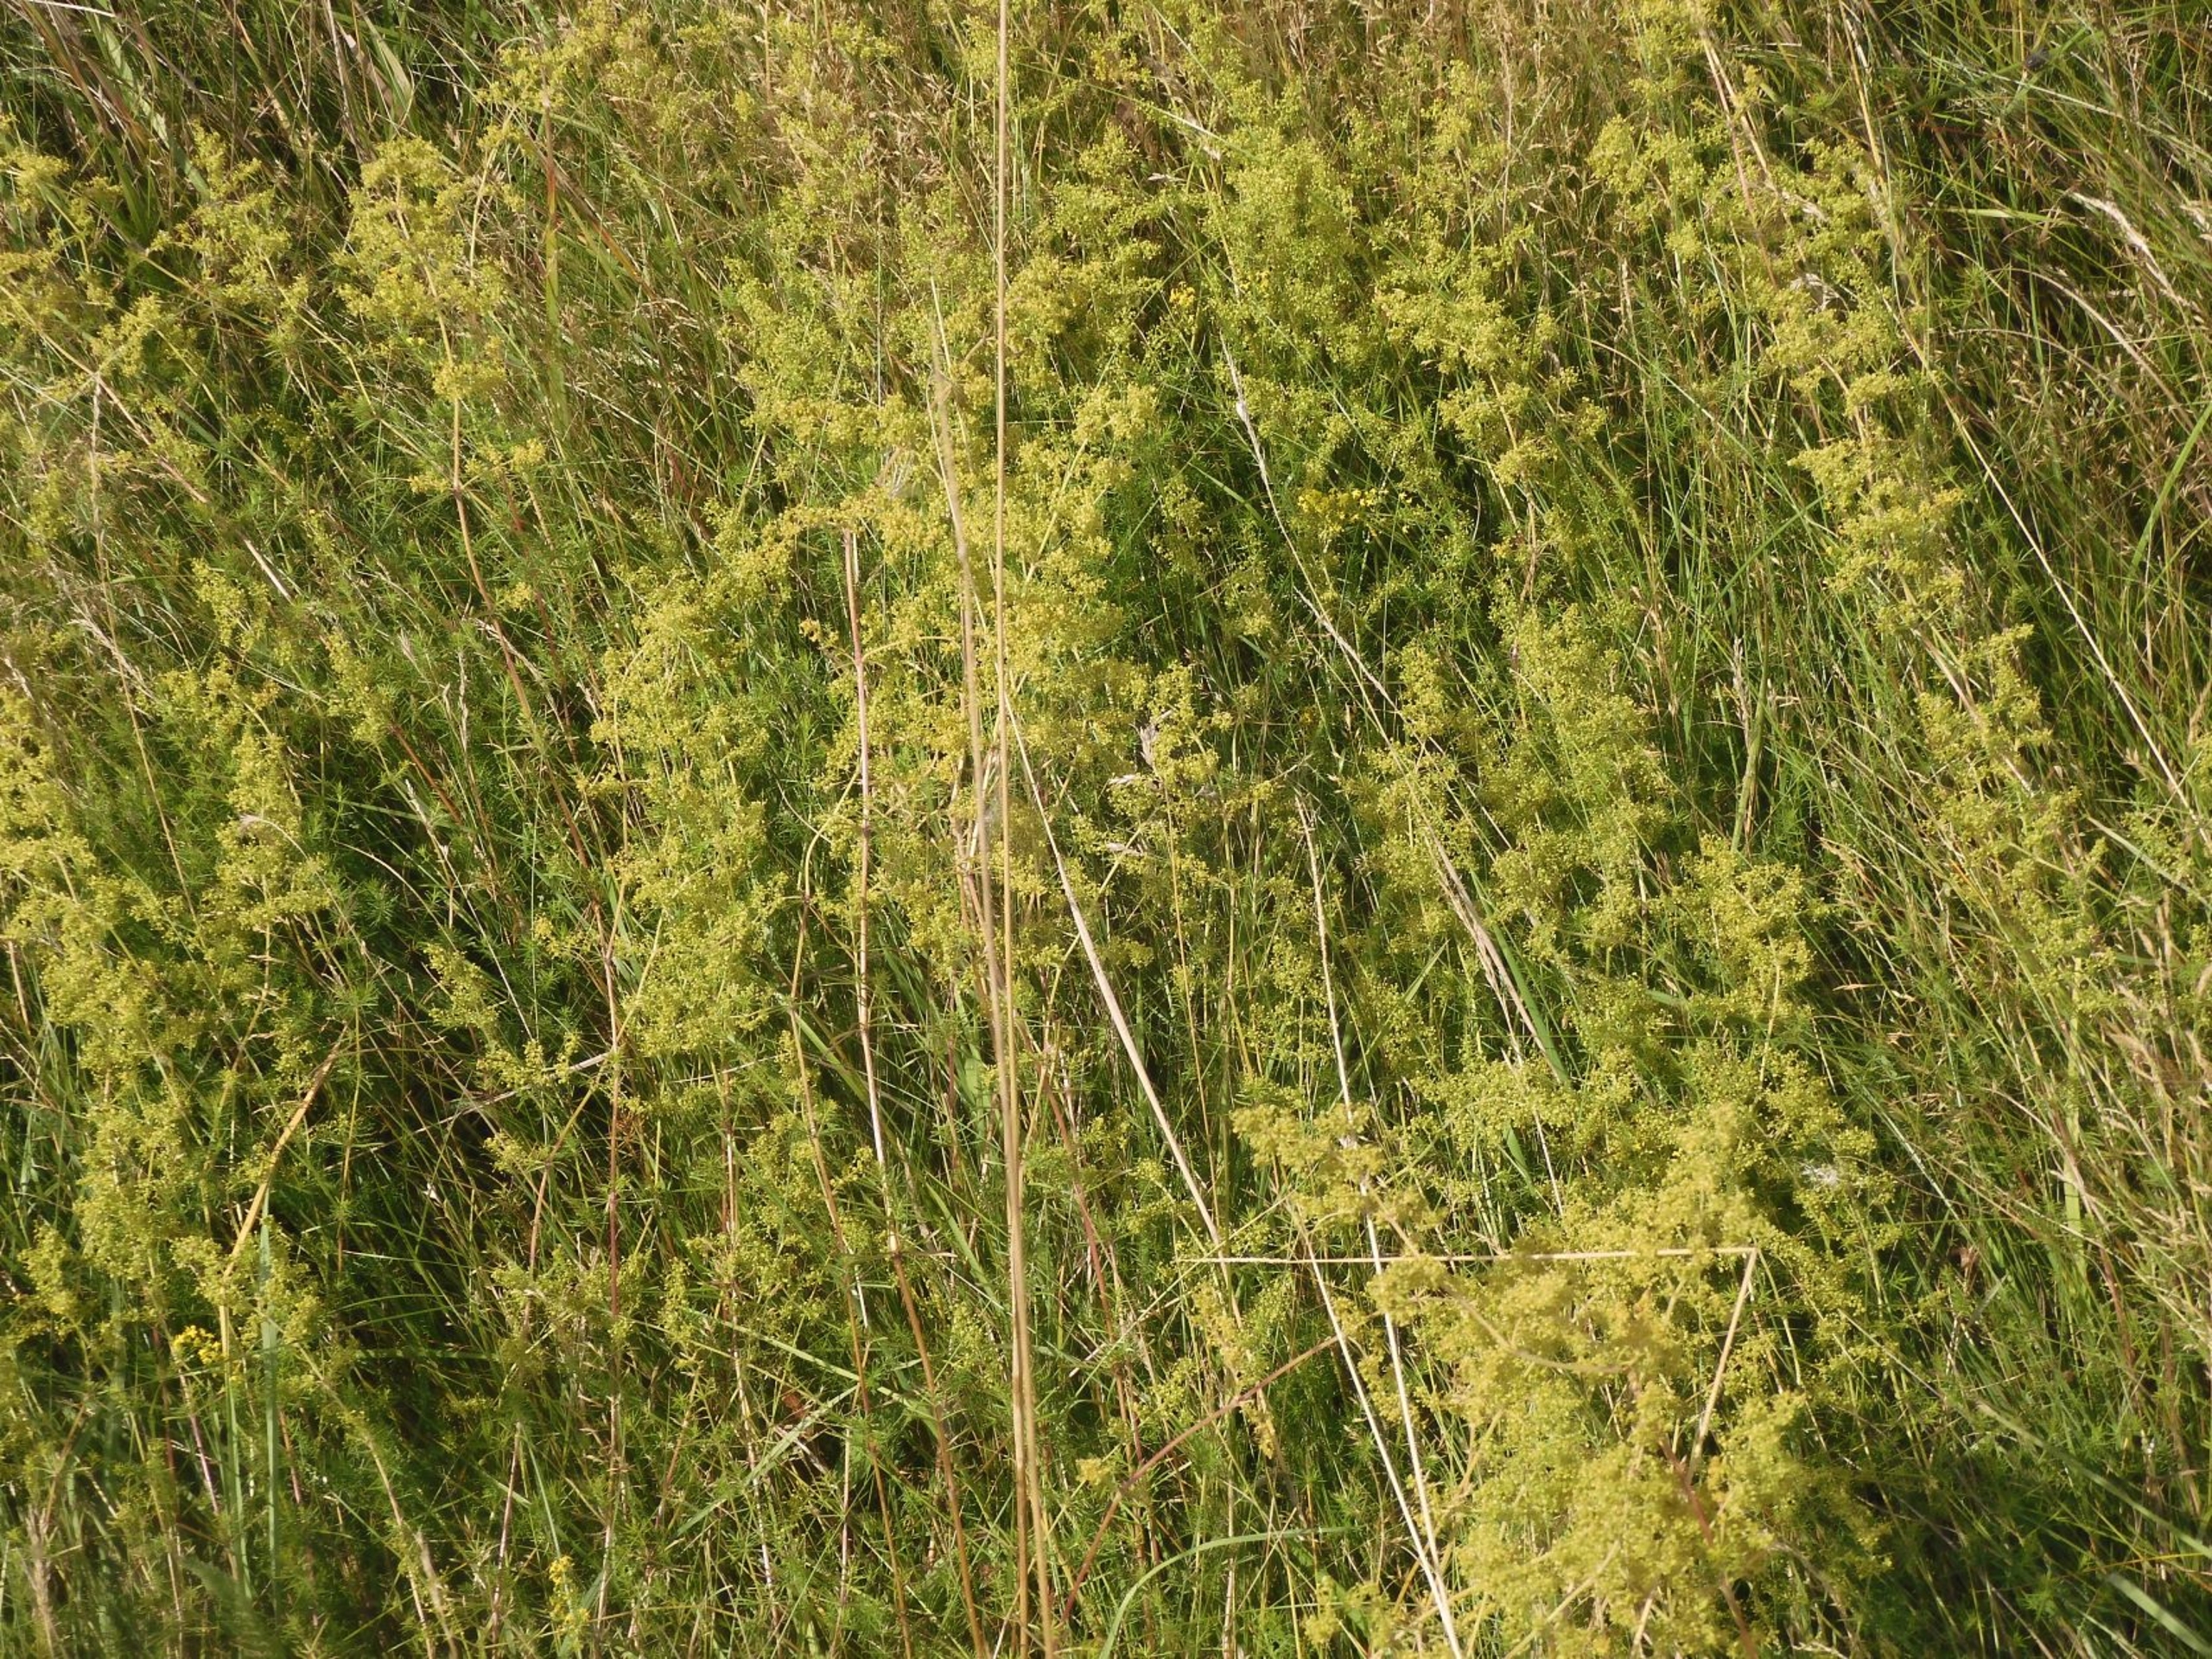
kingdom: Plantae
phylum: Tracheophyta
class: Magnoliopsida
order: Gentianales
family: Rubiaceae
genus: Galium
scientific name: Galium verum
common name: Gul snerre
